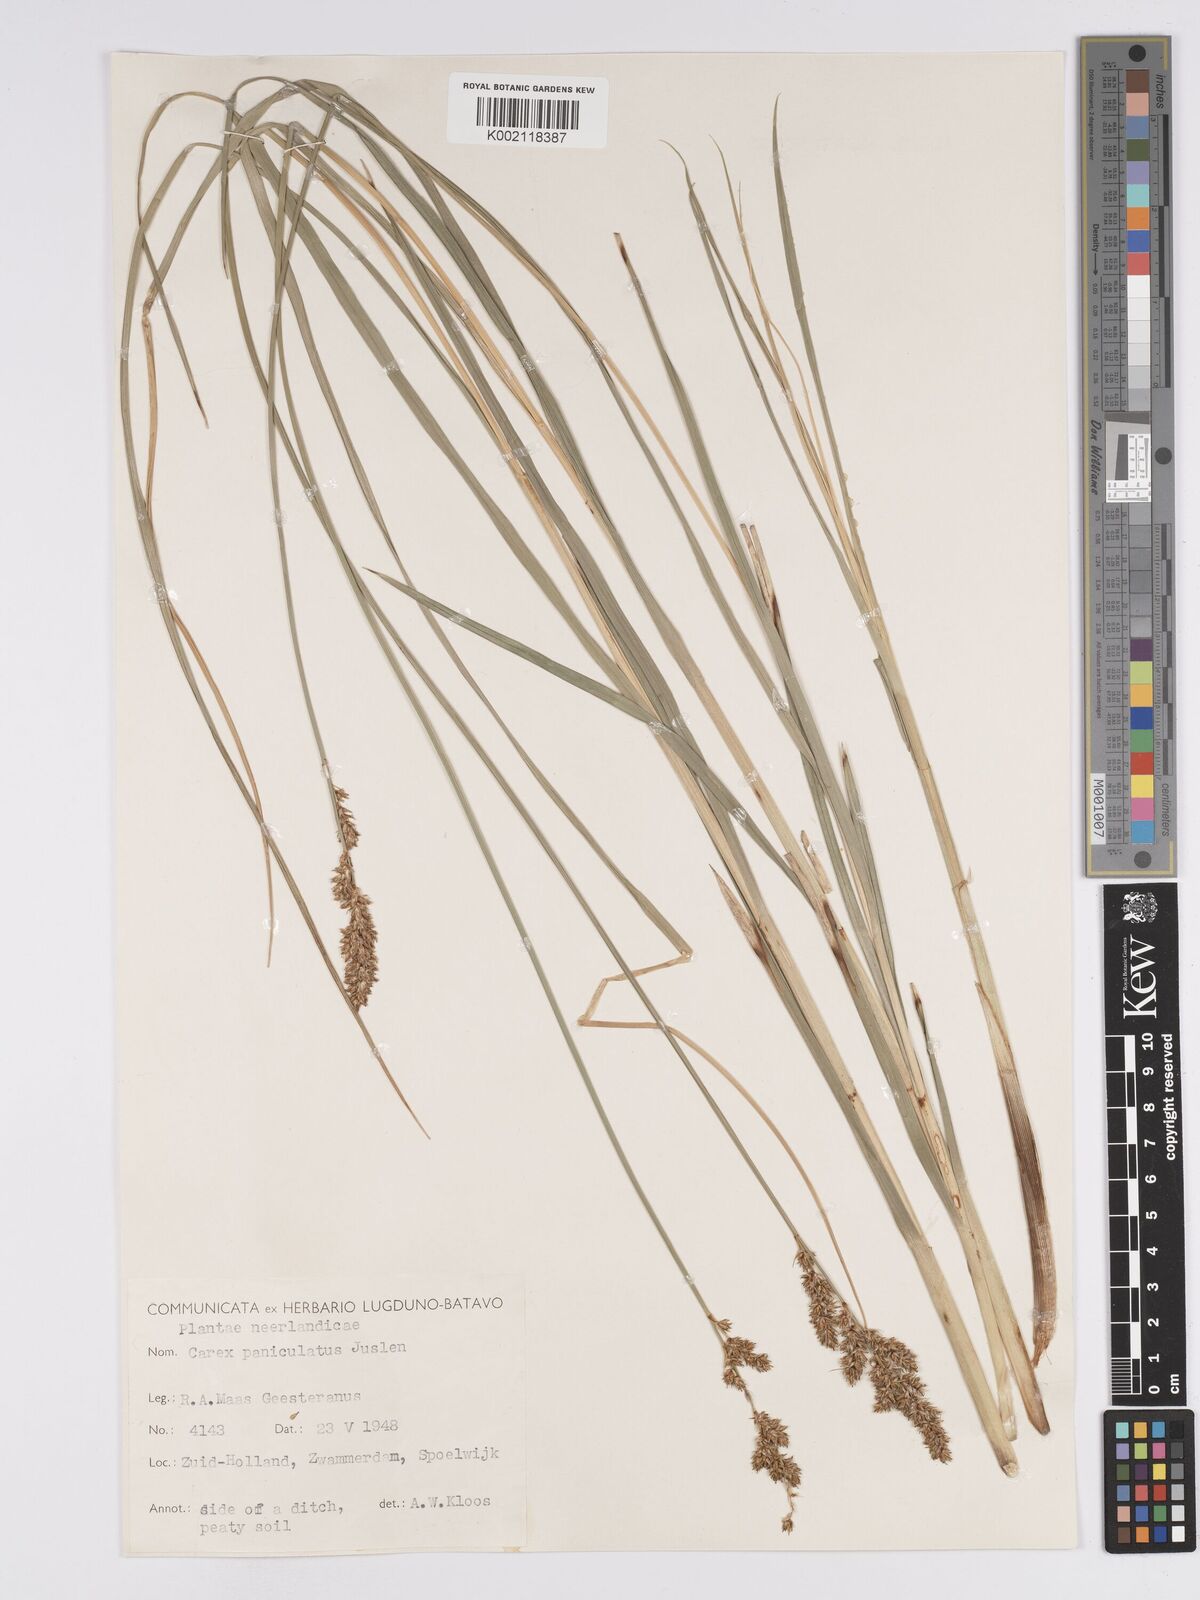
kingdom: Plantae
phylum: Tracheophyta
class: Liliopsida
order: Poales
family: Cyperaceae
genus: Carex
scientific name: Carex paniculata
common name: Greater tussock-sedge
